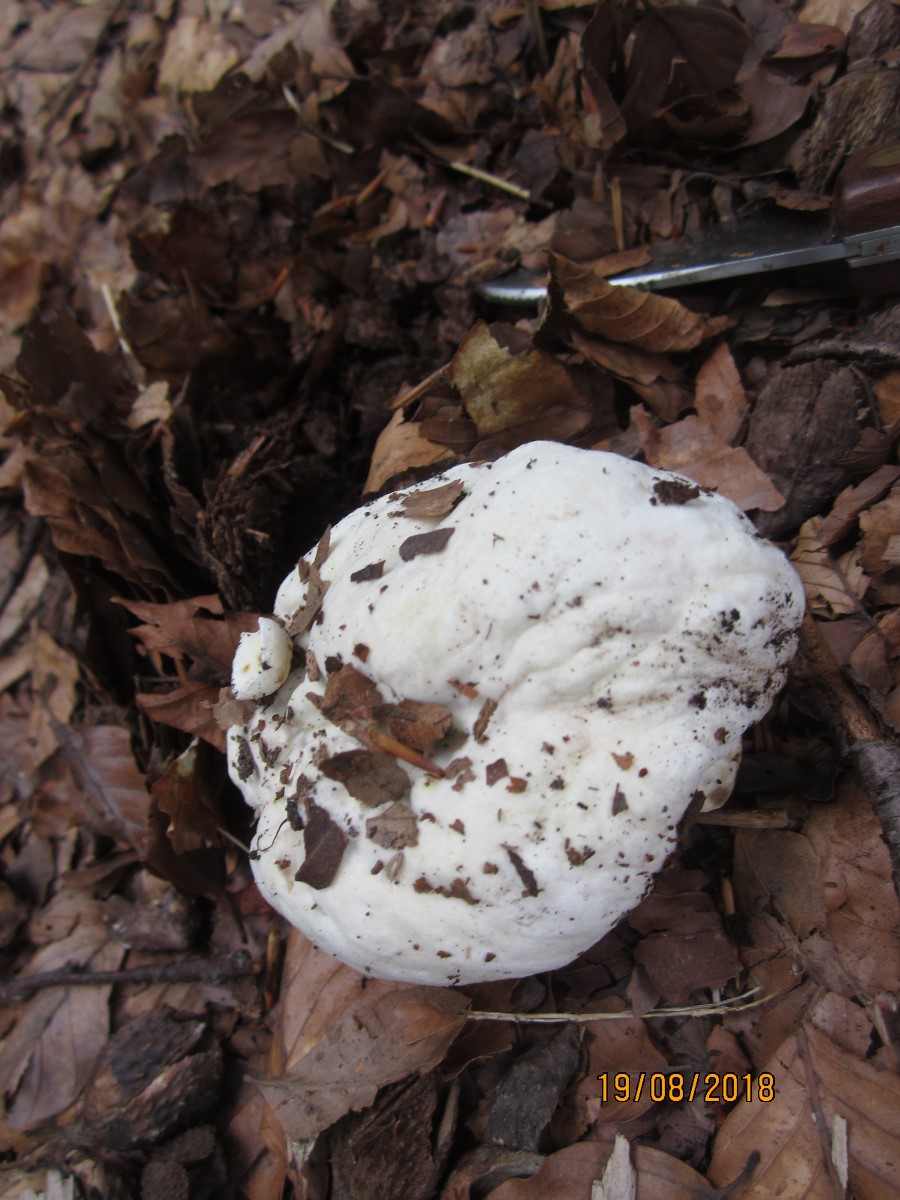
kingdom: Fungi
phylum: Basidiomycota
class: Agaricomycetes
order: Boletales
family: Boletaceae
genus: Boletus
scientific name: Boletus edulis
